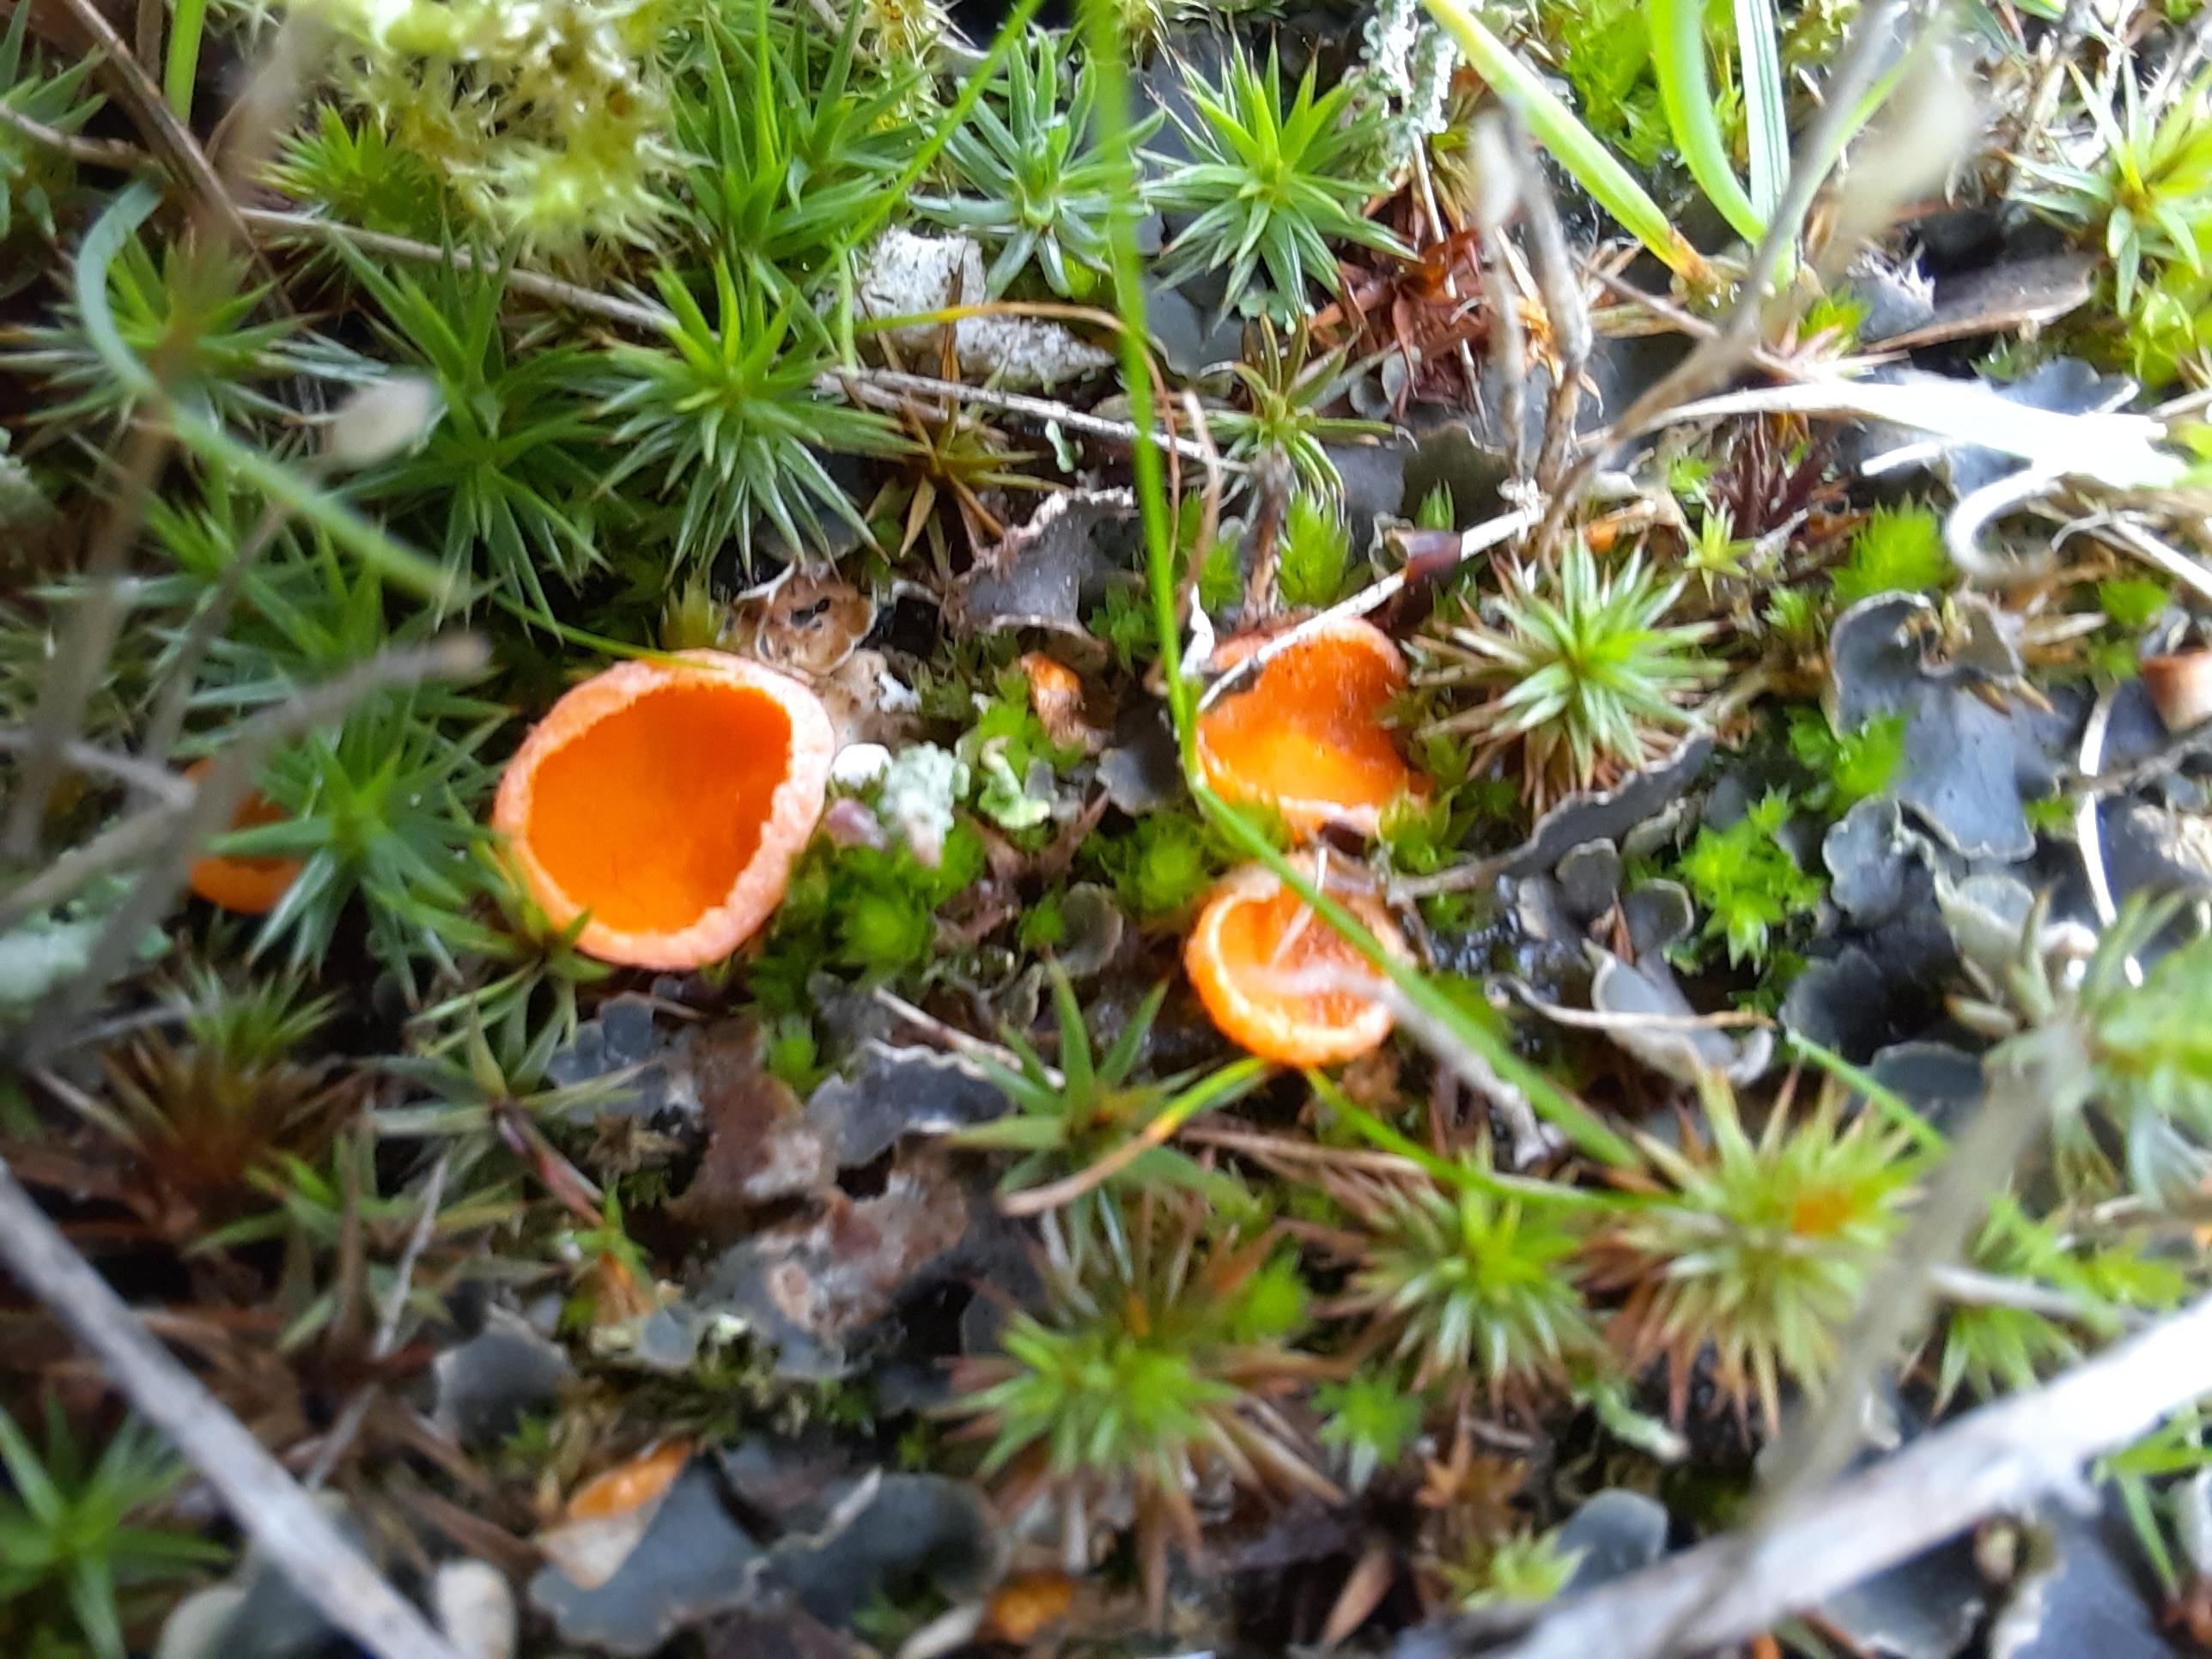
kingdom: Fungi
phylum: Ascomycota
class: Pezizomycetes
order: Pezizales
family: Pyronemataceae
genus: Neottiella
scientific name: Neottiella
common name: mosbæger
